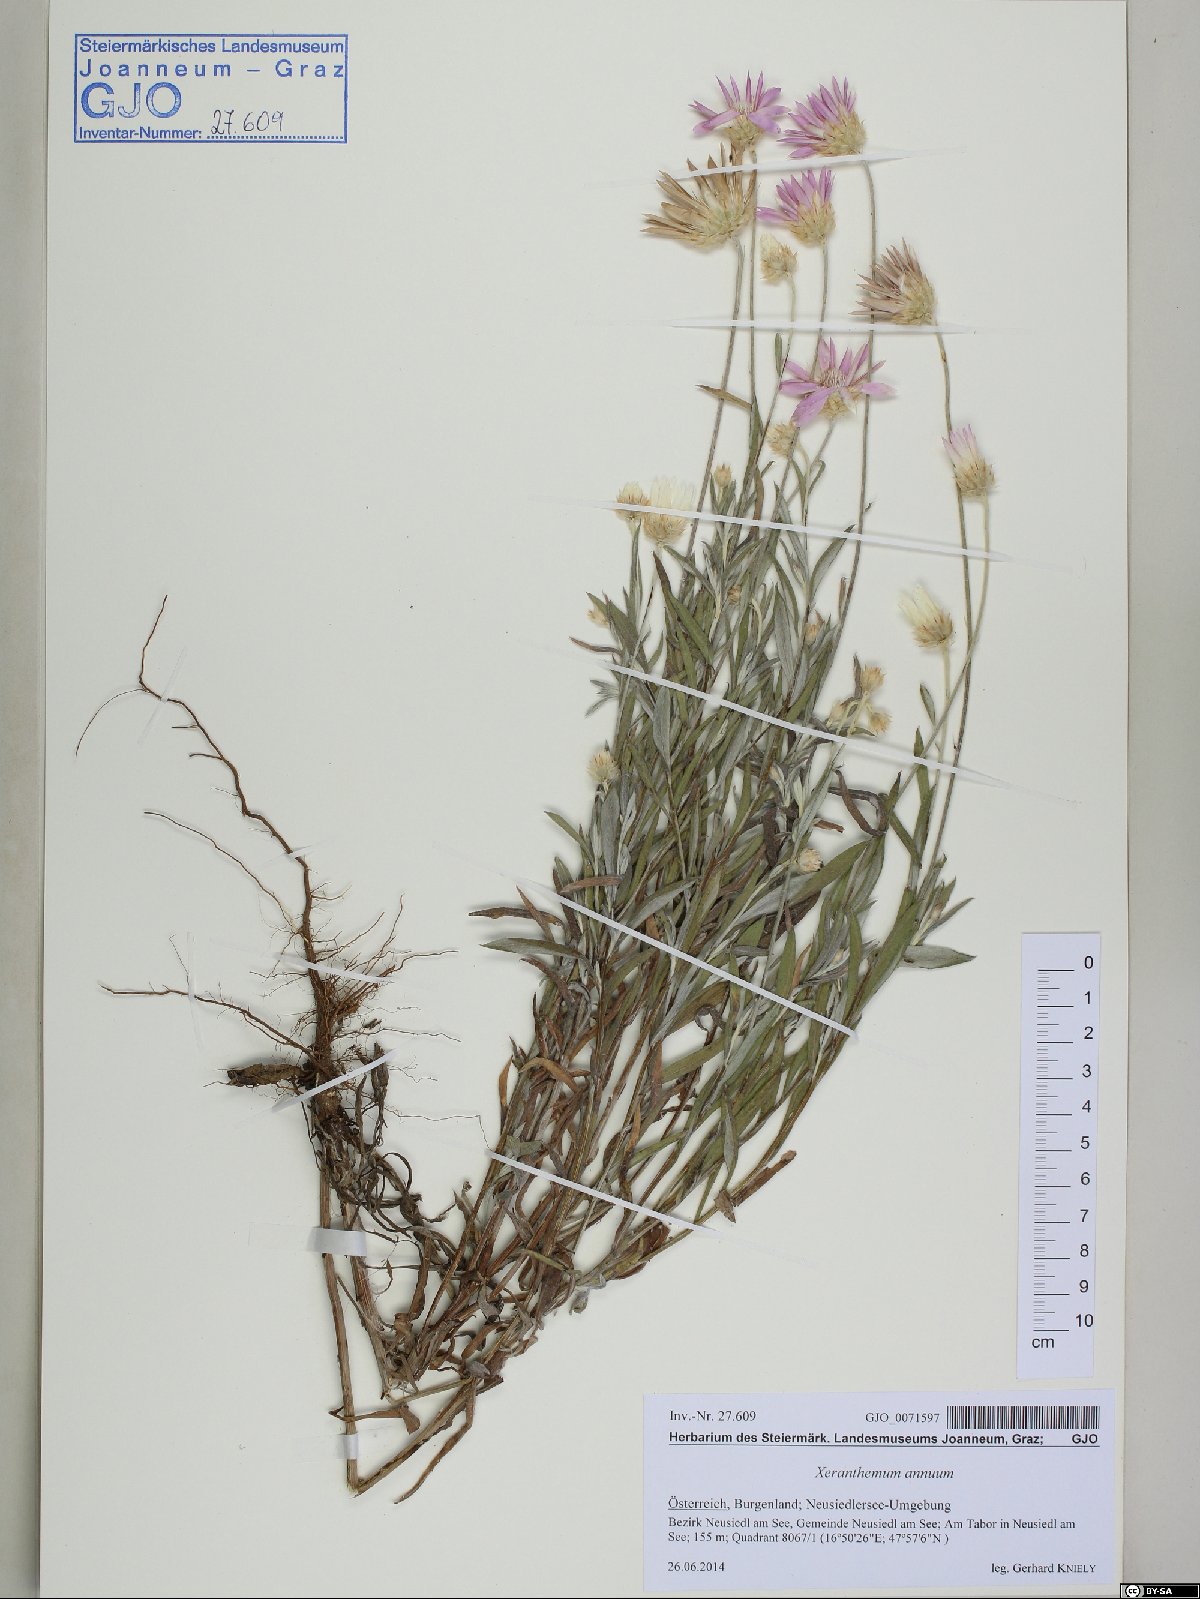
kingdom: Plantae
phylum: Tracheophyta
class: Magnoliopsida
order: Asterales
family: Asteraceae
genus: Xeranthemum
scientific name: Xeranthemum annuum
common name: Immortelle
